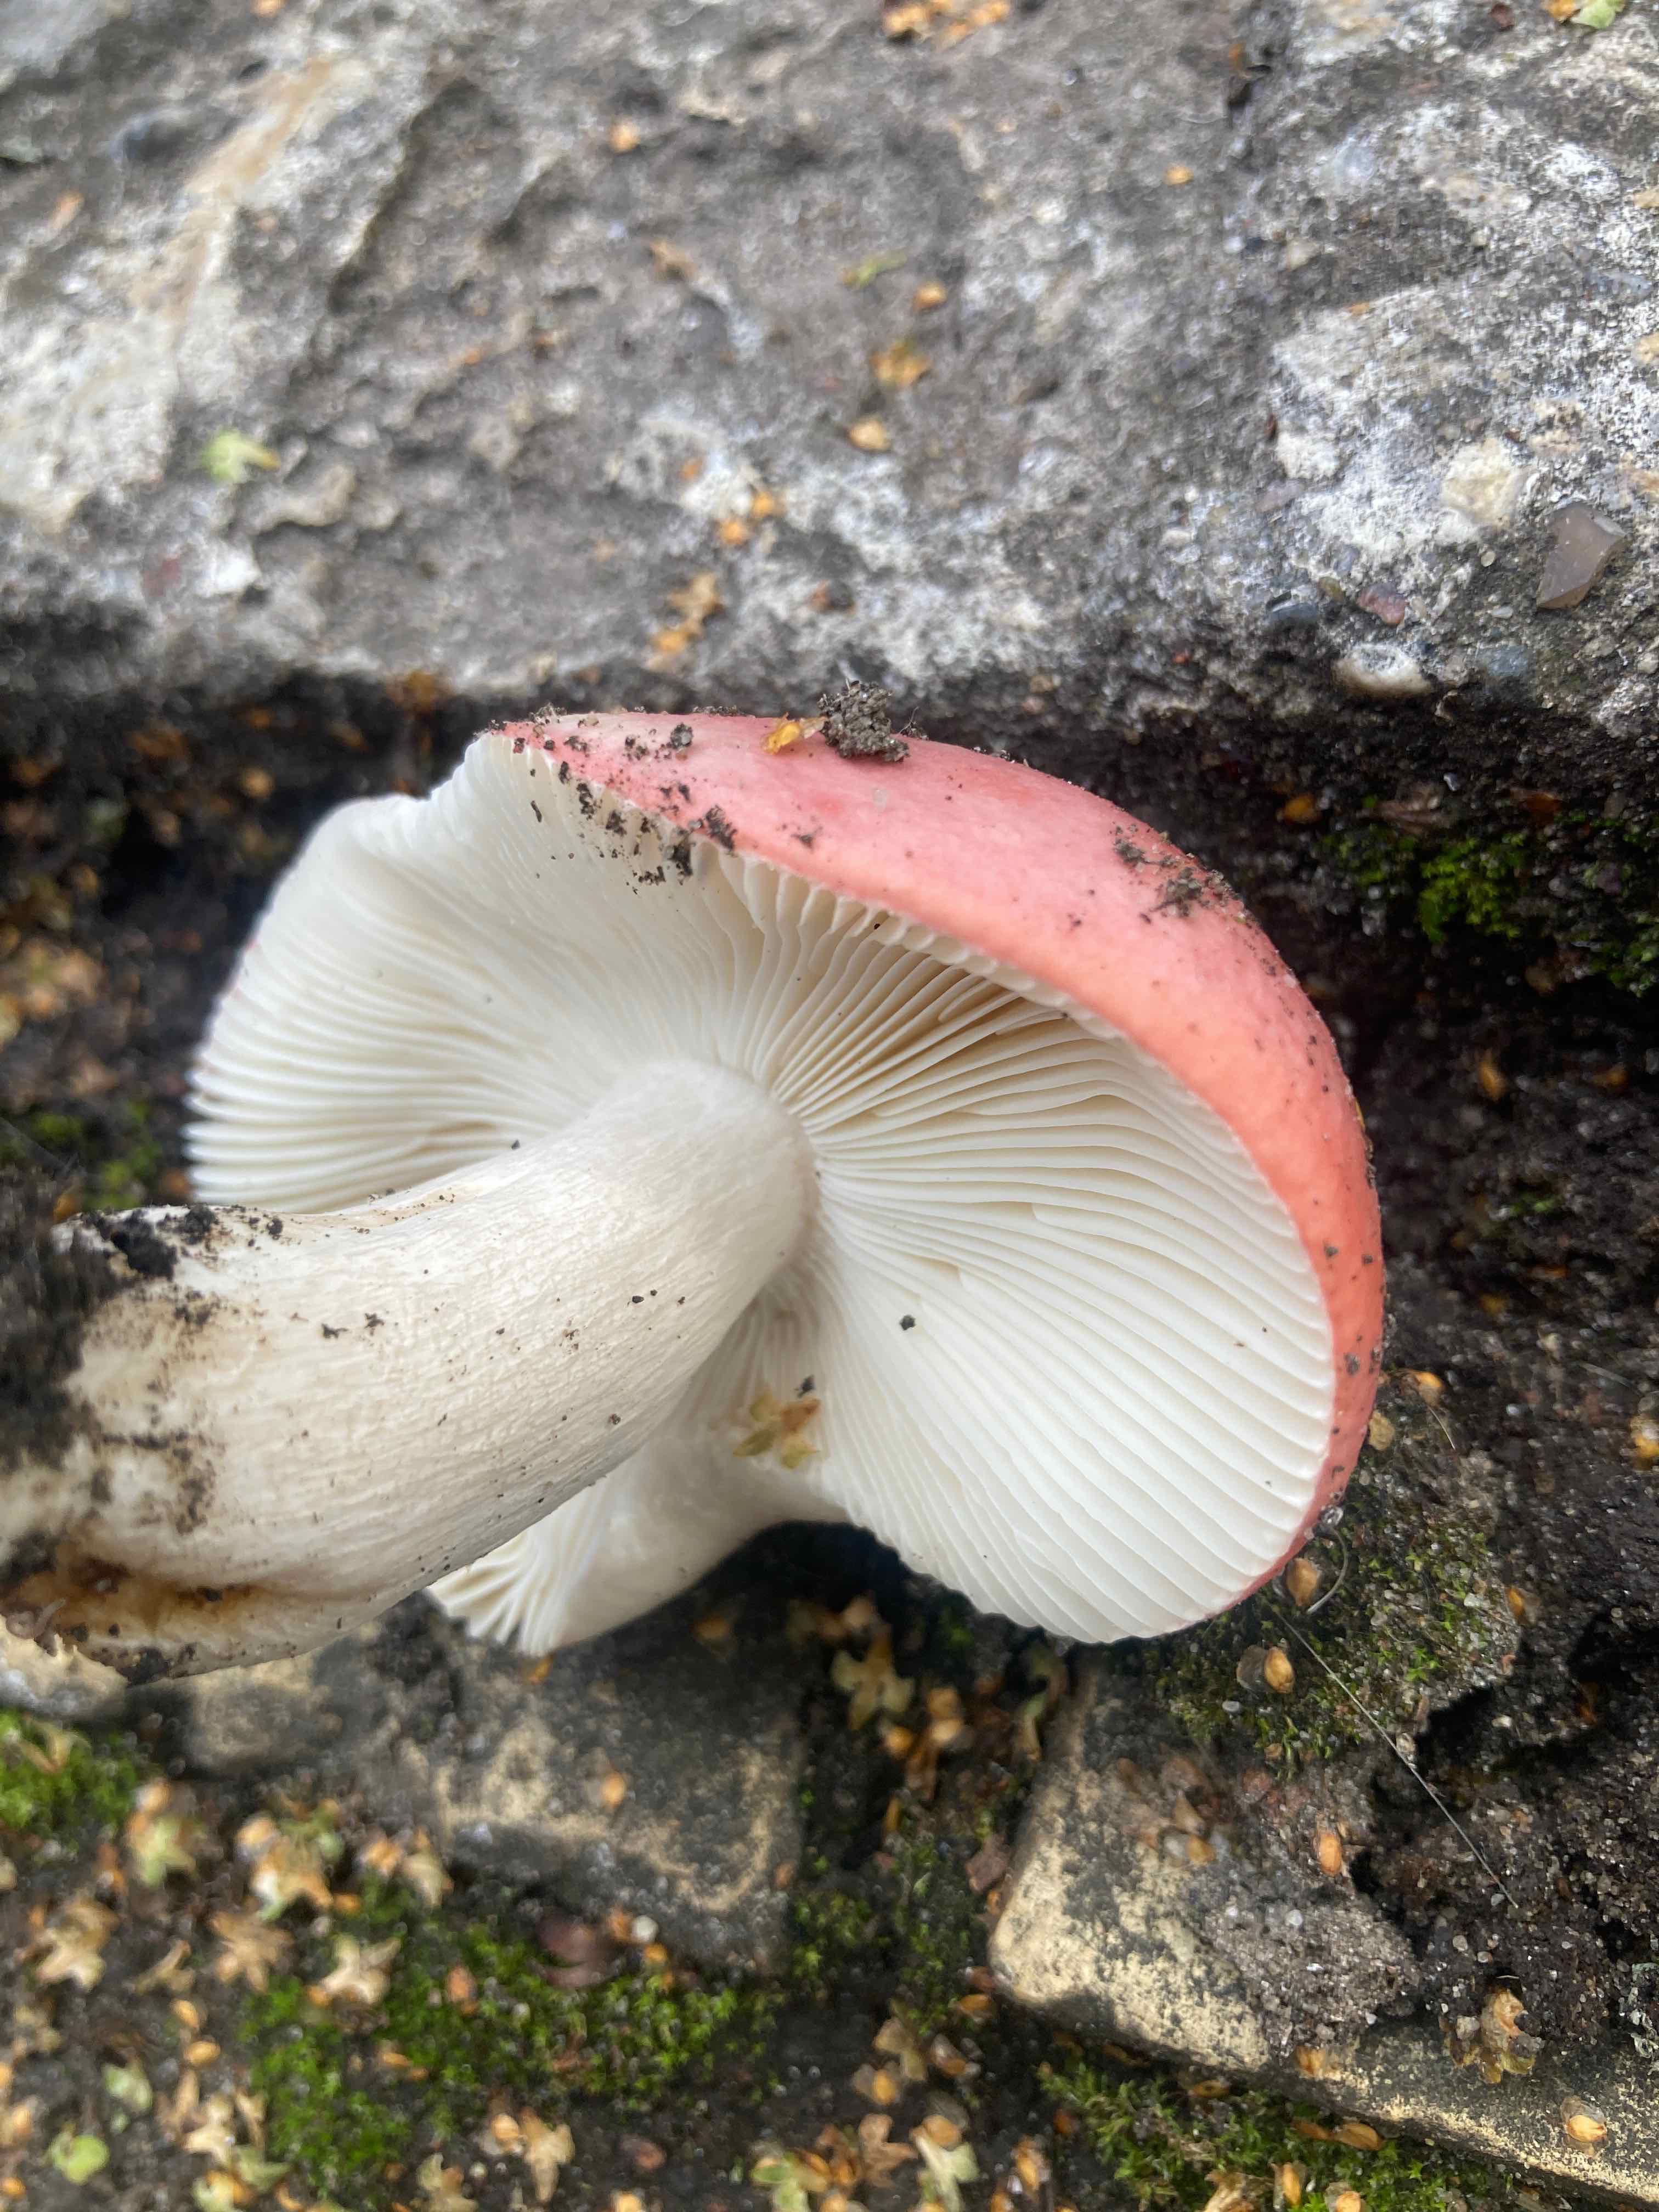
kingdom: Fungi
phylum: Basidiomycota
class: Agaricomycetes
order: Russulales
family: Russulaceae
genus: Russula
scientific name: Russula depallens
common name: falmende skørhat
